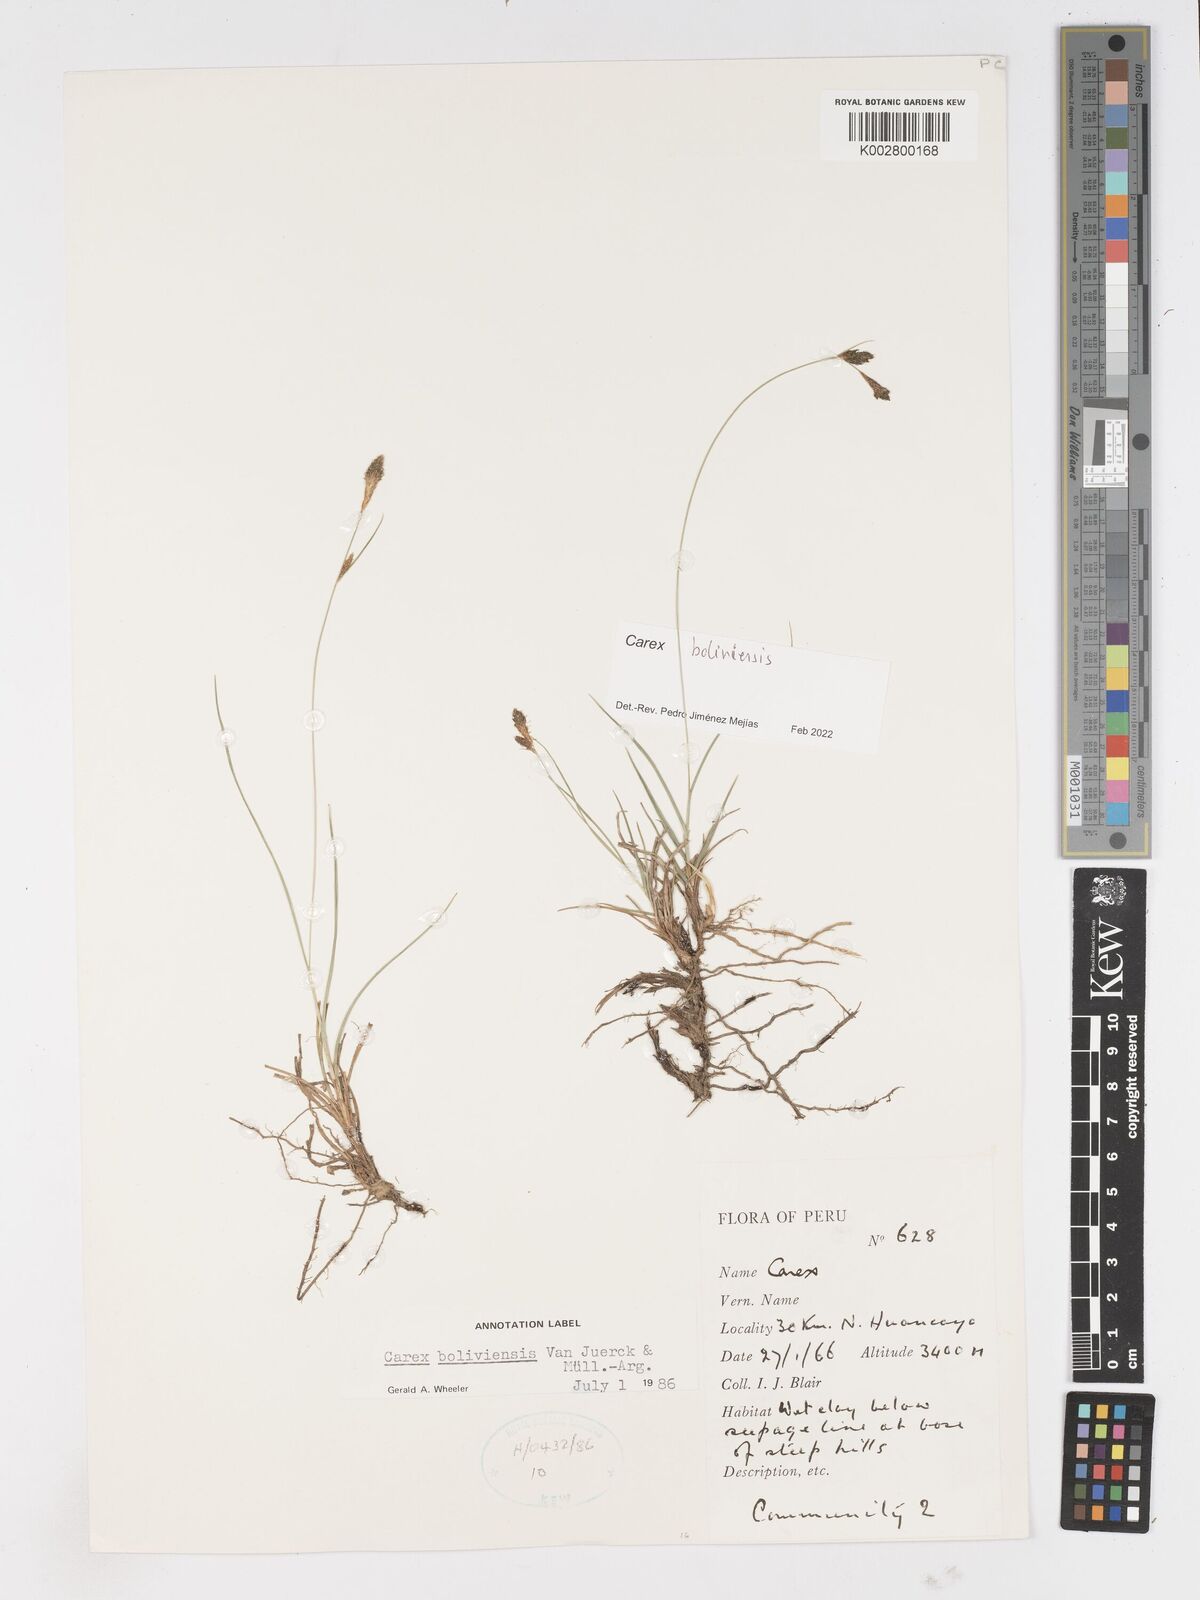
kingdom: Plantae
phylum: Tracheophyta
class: Liliopsida
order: Poales
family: Cyperaceae
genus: Carex
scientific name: Carex boliviensis
